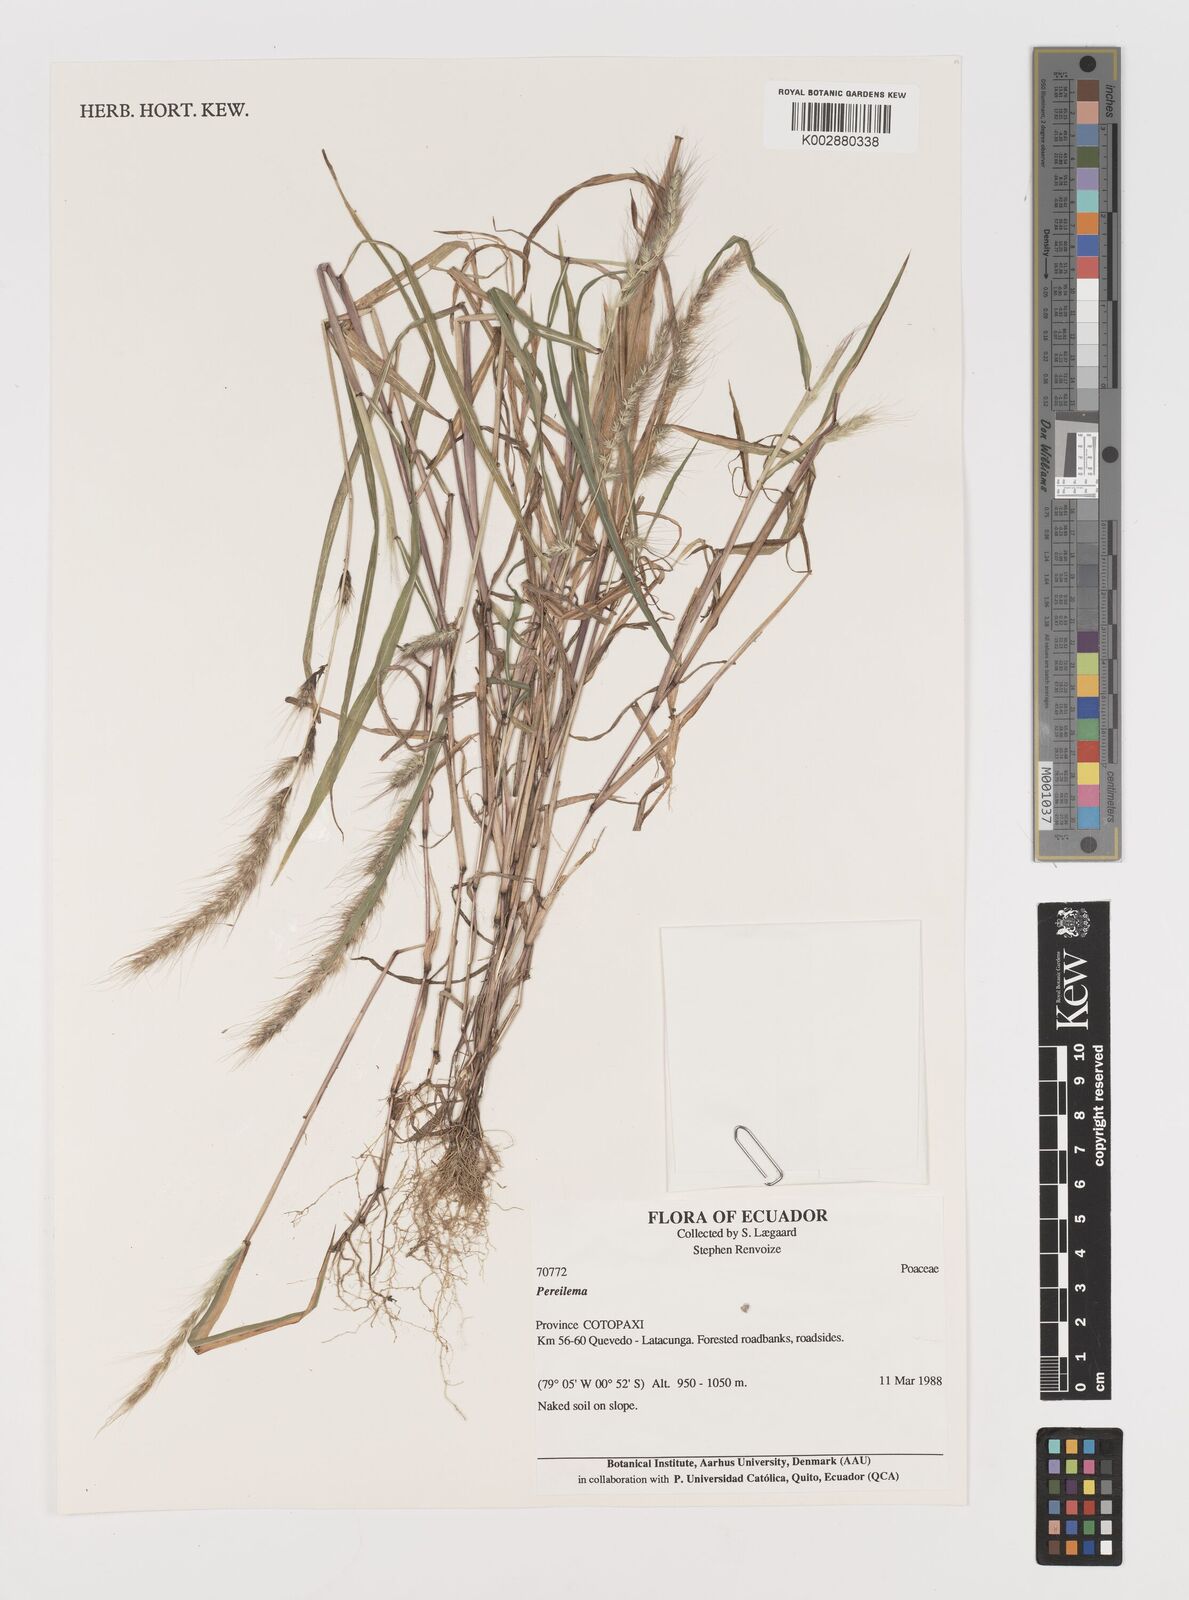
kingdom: Plantae
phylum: Tracheophyta
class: Liliopsida
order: Poales
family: Poaceae
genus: Muhlenbergia
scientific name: Muhlenbergia beyrichiana
